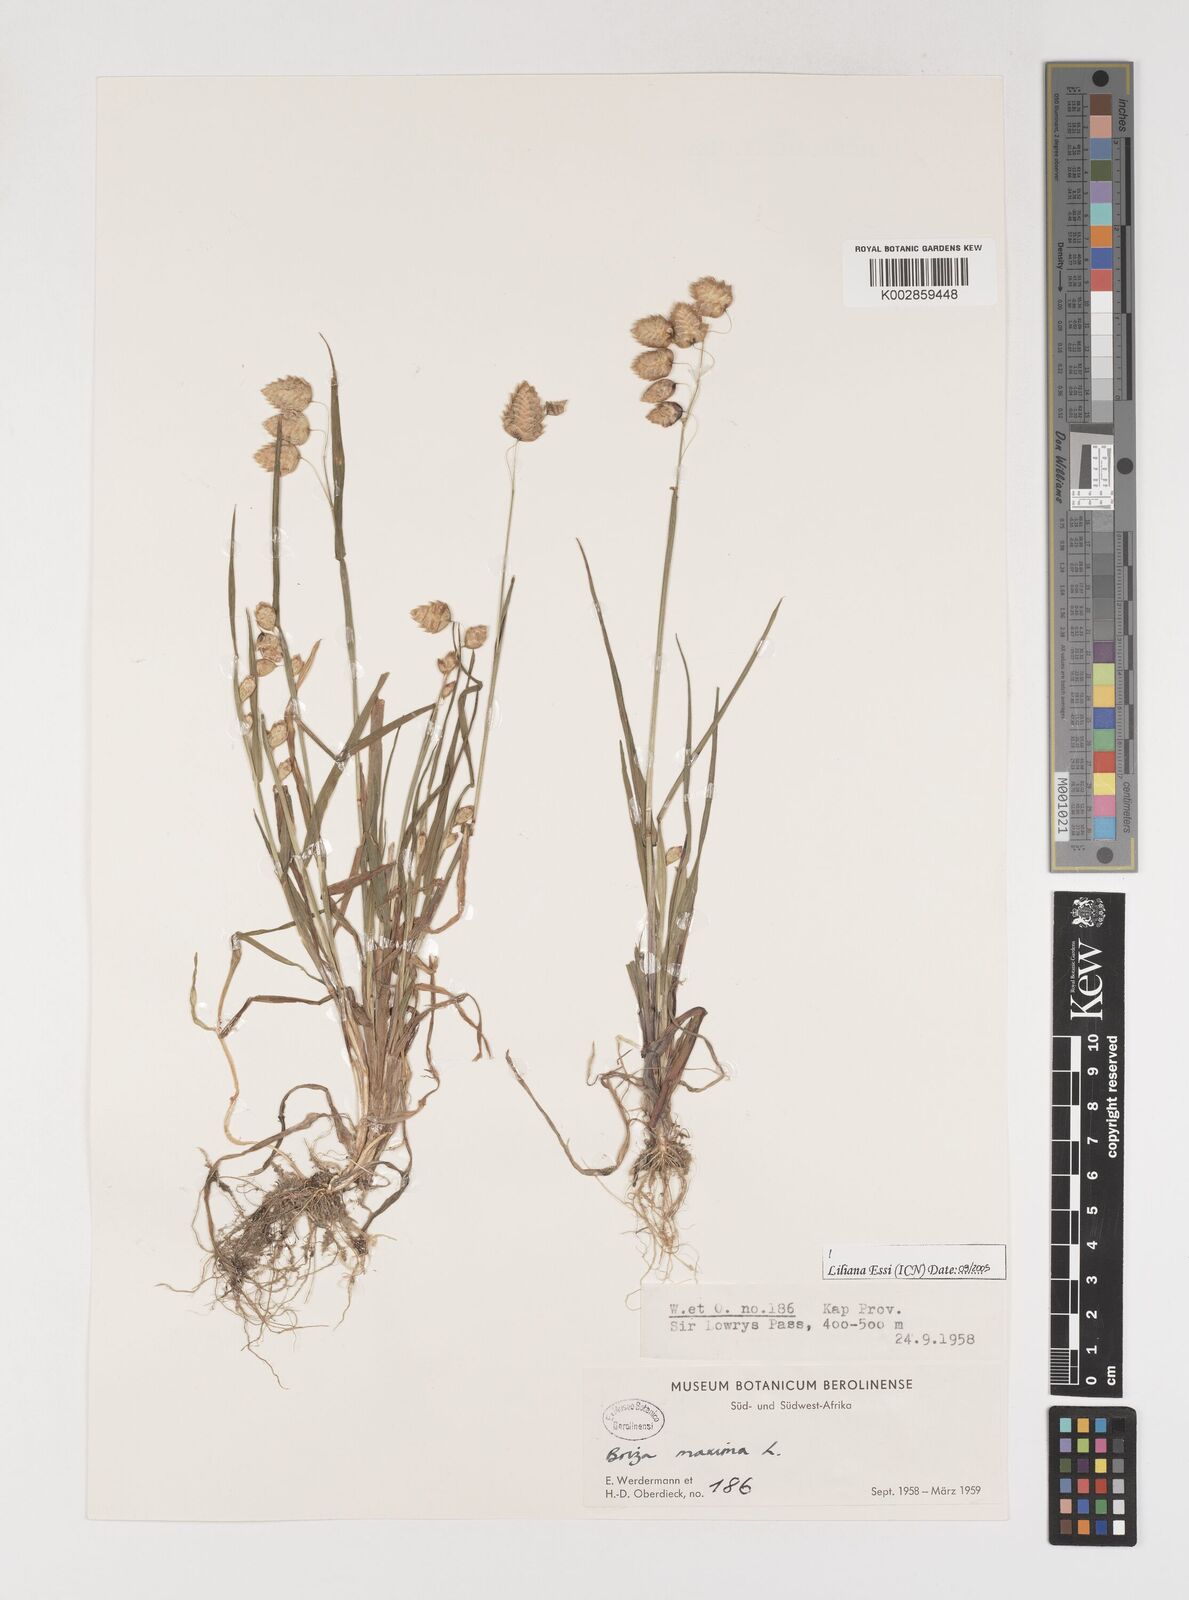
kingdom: Plantae
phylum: Tracheophyta
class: Liliopsida
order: Poales
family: Poaceae
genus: Briza
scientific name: Briza maxima
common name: Big quakinggrass
